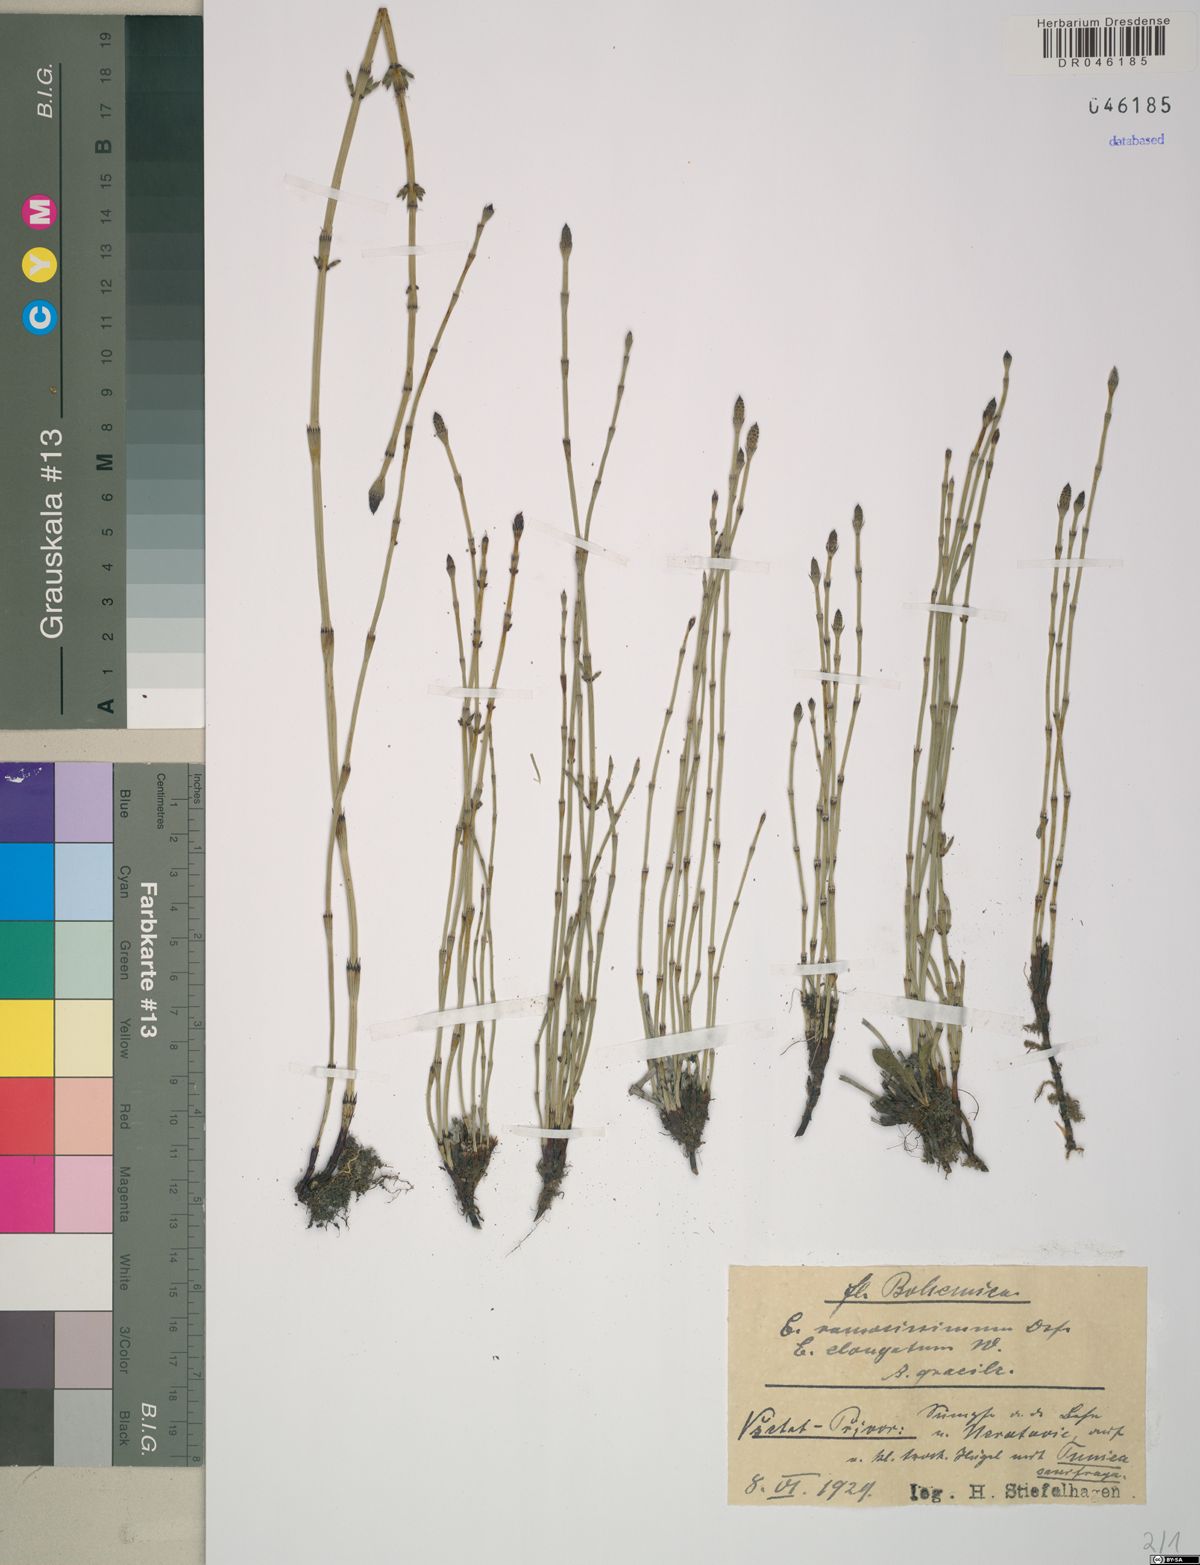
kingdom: Plantae
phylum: Tracheophyta
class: Polypodiopsida
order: Equisetales
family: Equisetaceae
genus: Equisetum
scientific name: Equisetum ramosissimum
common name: Branched horsetail
